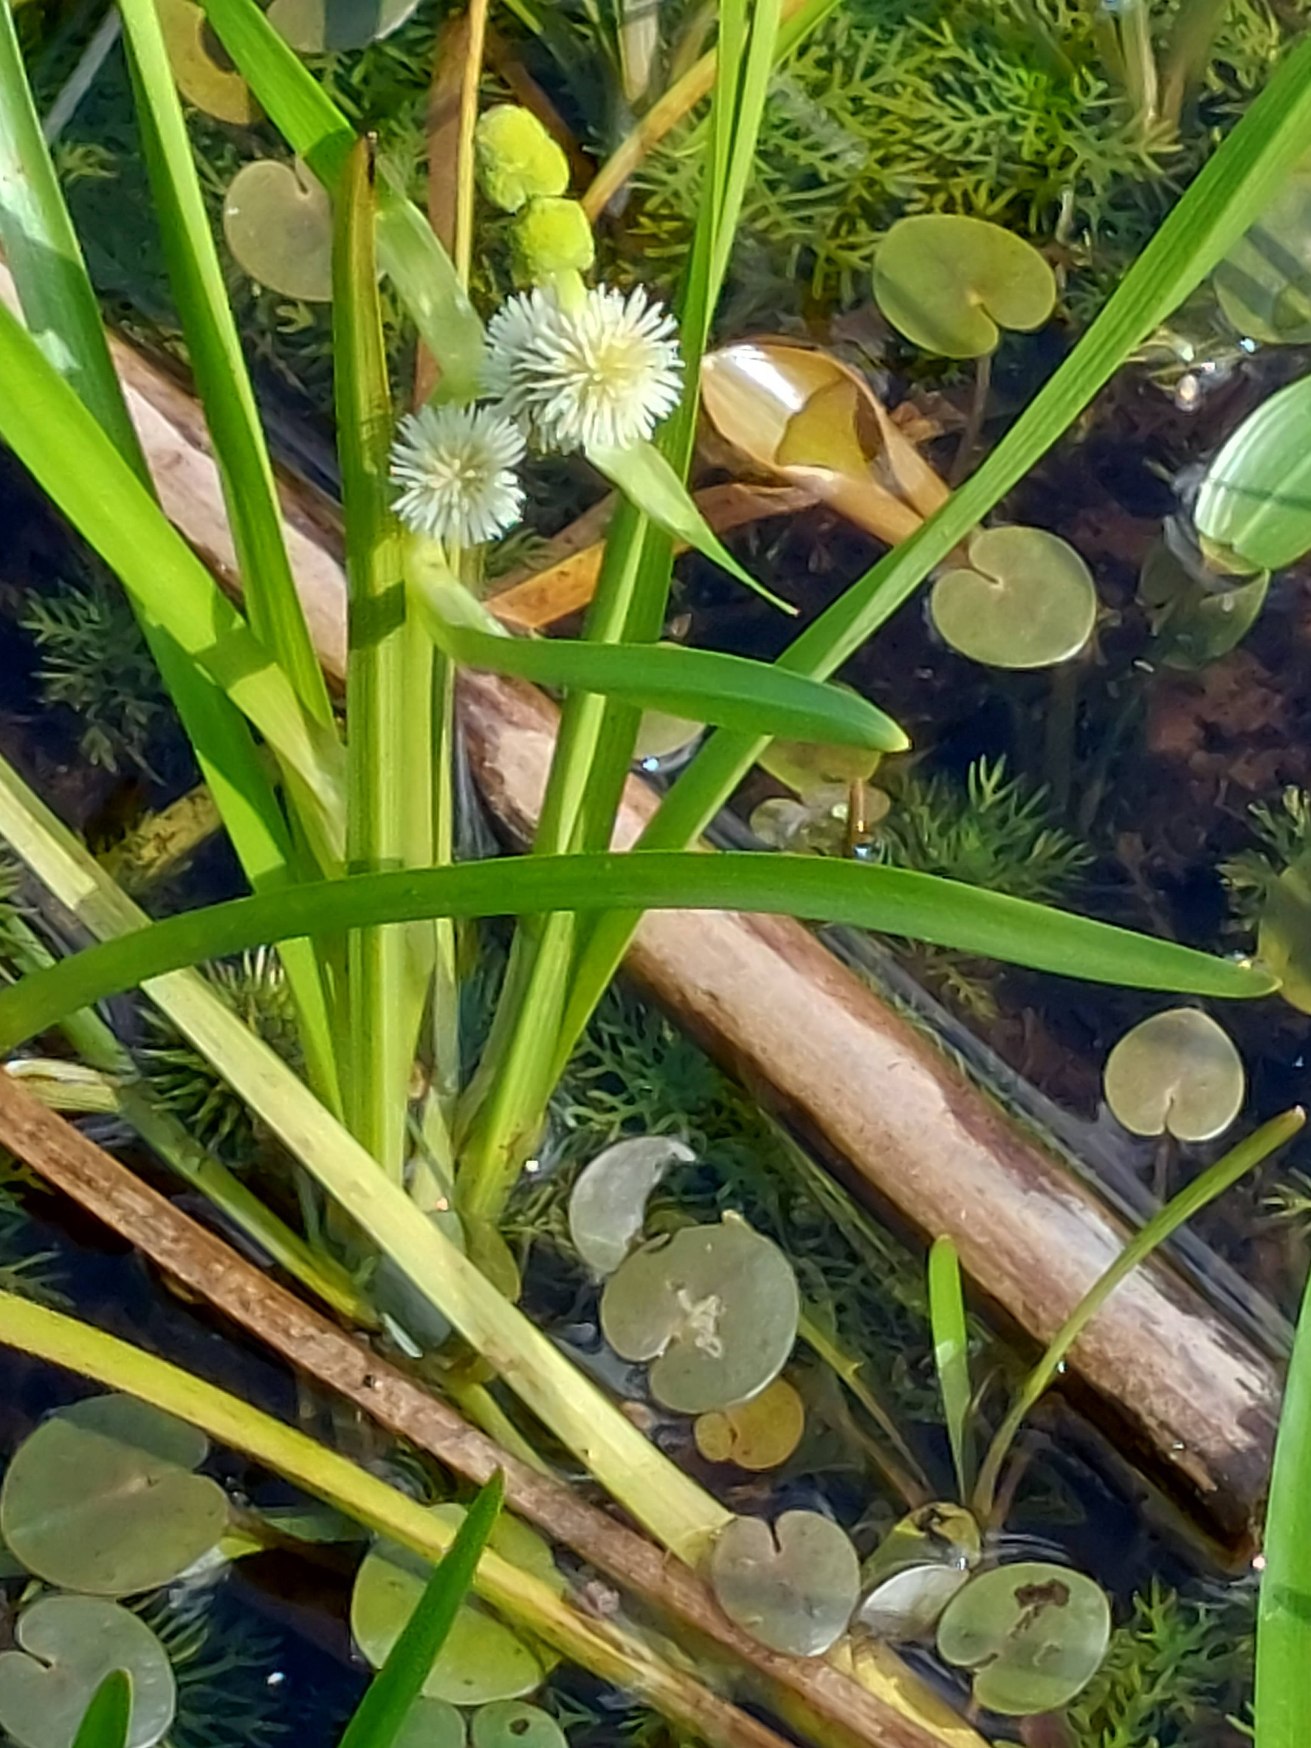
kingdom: Plantae
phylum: Tracheophyta
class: Liliopsida
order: Poales
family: Typhaceae
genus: Sparganium
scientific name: Sparganium emersum
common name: Enkelt pindsvineknop
